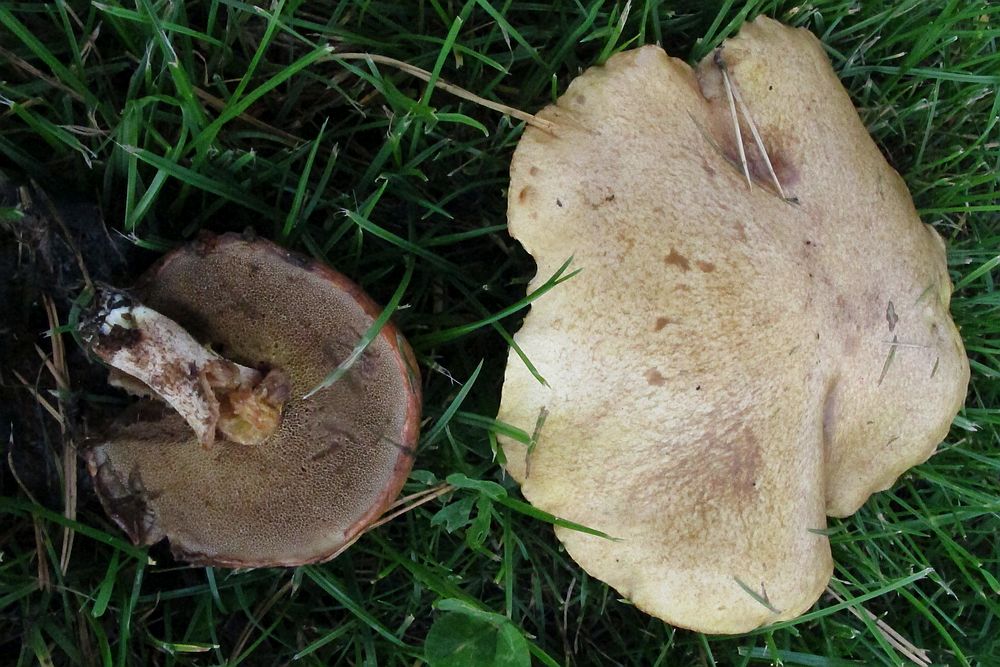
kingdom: Fungi
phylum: Basidiomycota
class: Agaricomycetes
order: Boletales
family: Suillaceae
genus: Suillus
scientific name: Suillus granulatus
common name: kornet slimrørhat
